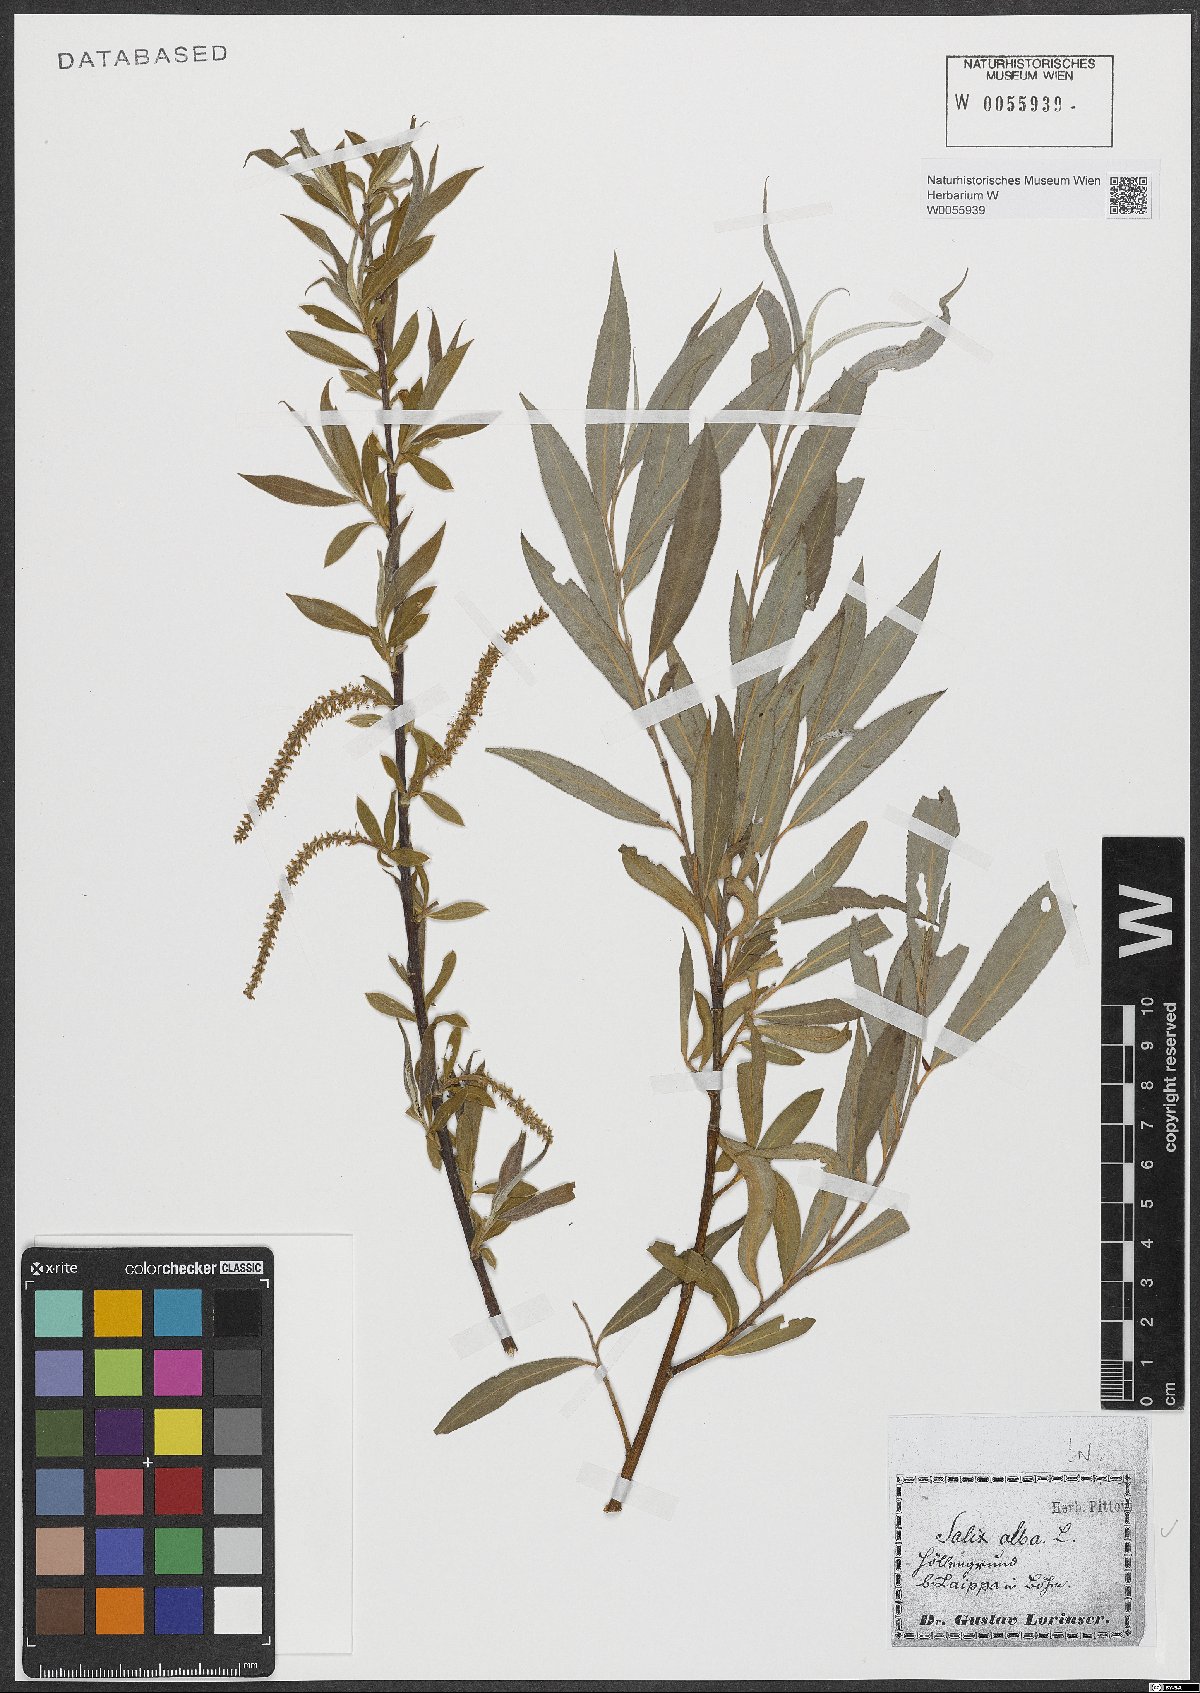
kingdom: Plantae
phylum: Tracheophyta
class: Magnoliopsida
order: Malpighiales
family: Salicaceae
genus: Salix
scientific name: Salix alba
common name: White willow
